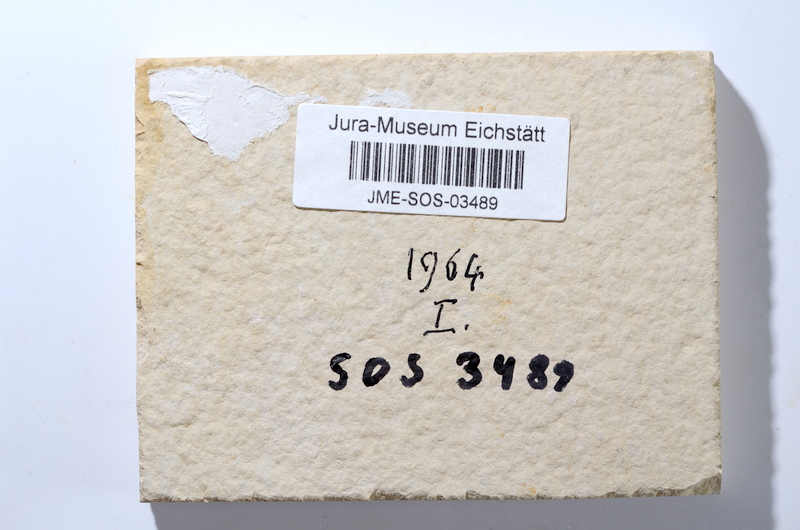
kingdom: Animalia
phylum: Chordata
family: Ascalaboidae
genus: Tharsis
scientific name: Tharsis dubius
